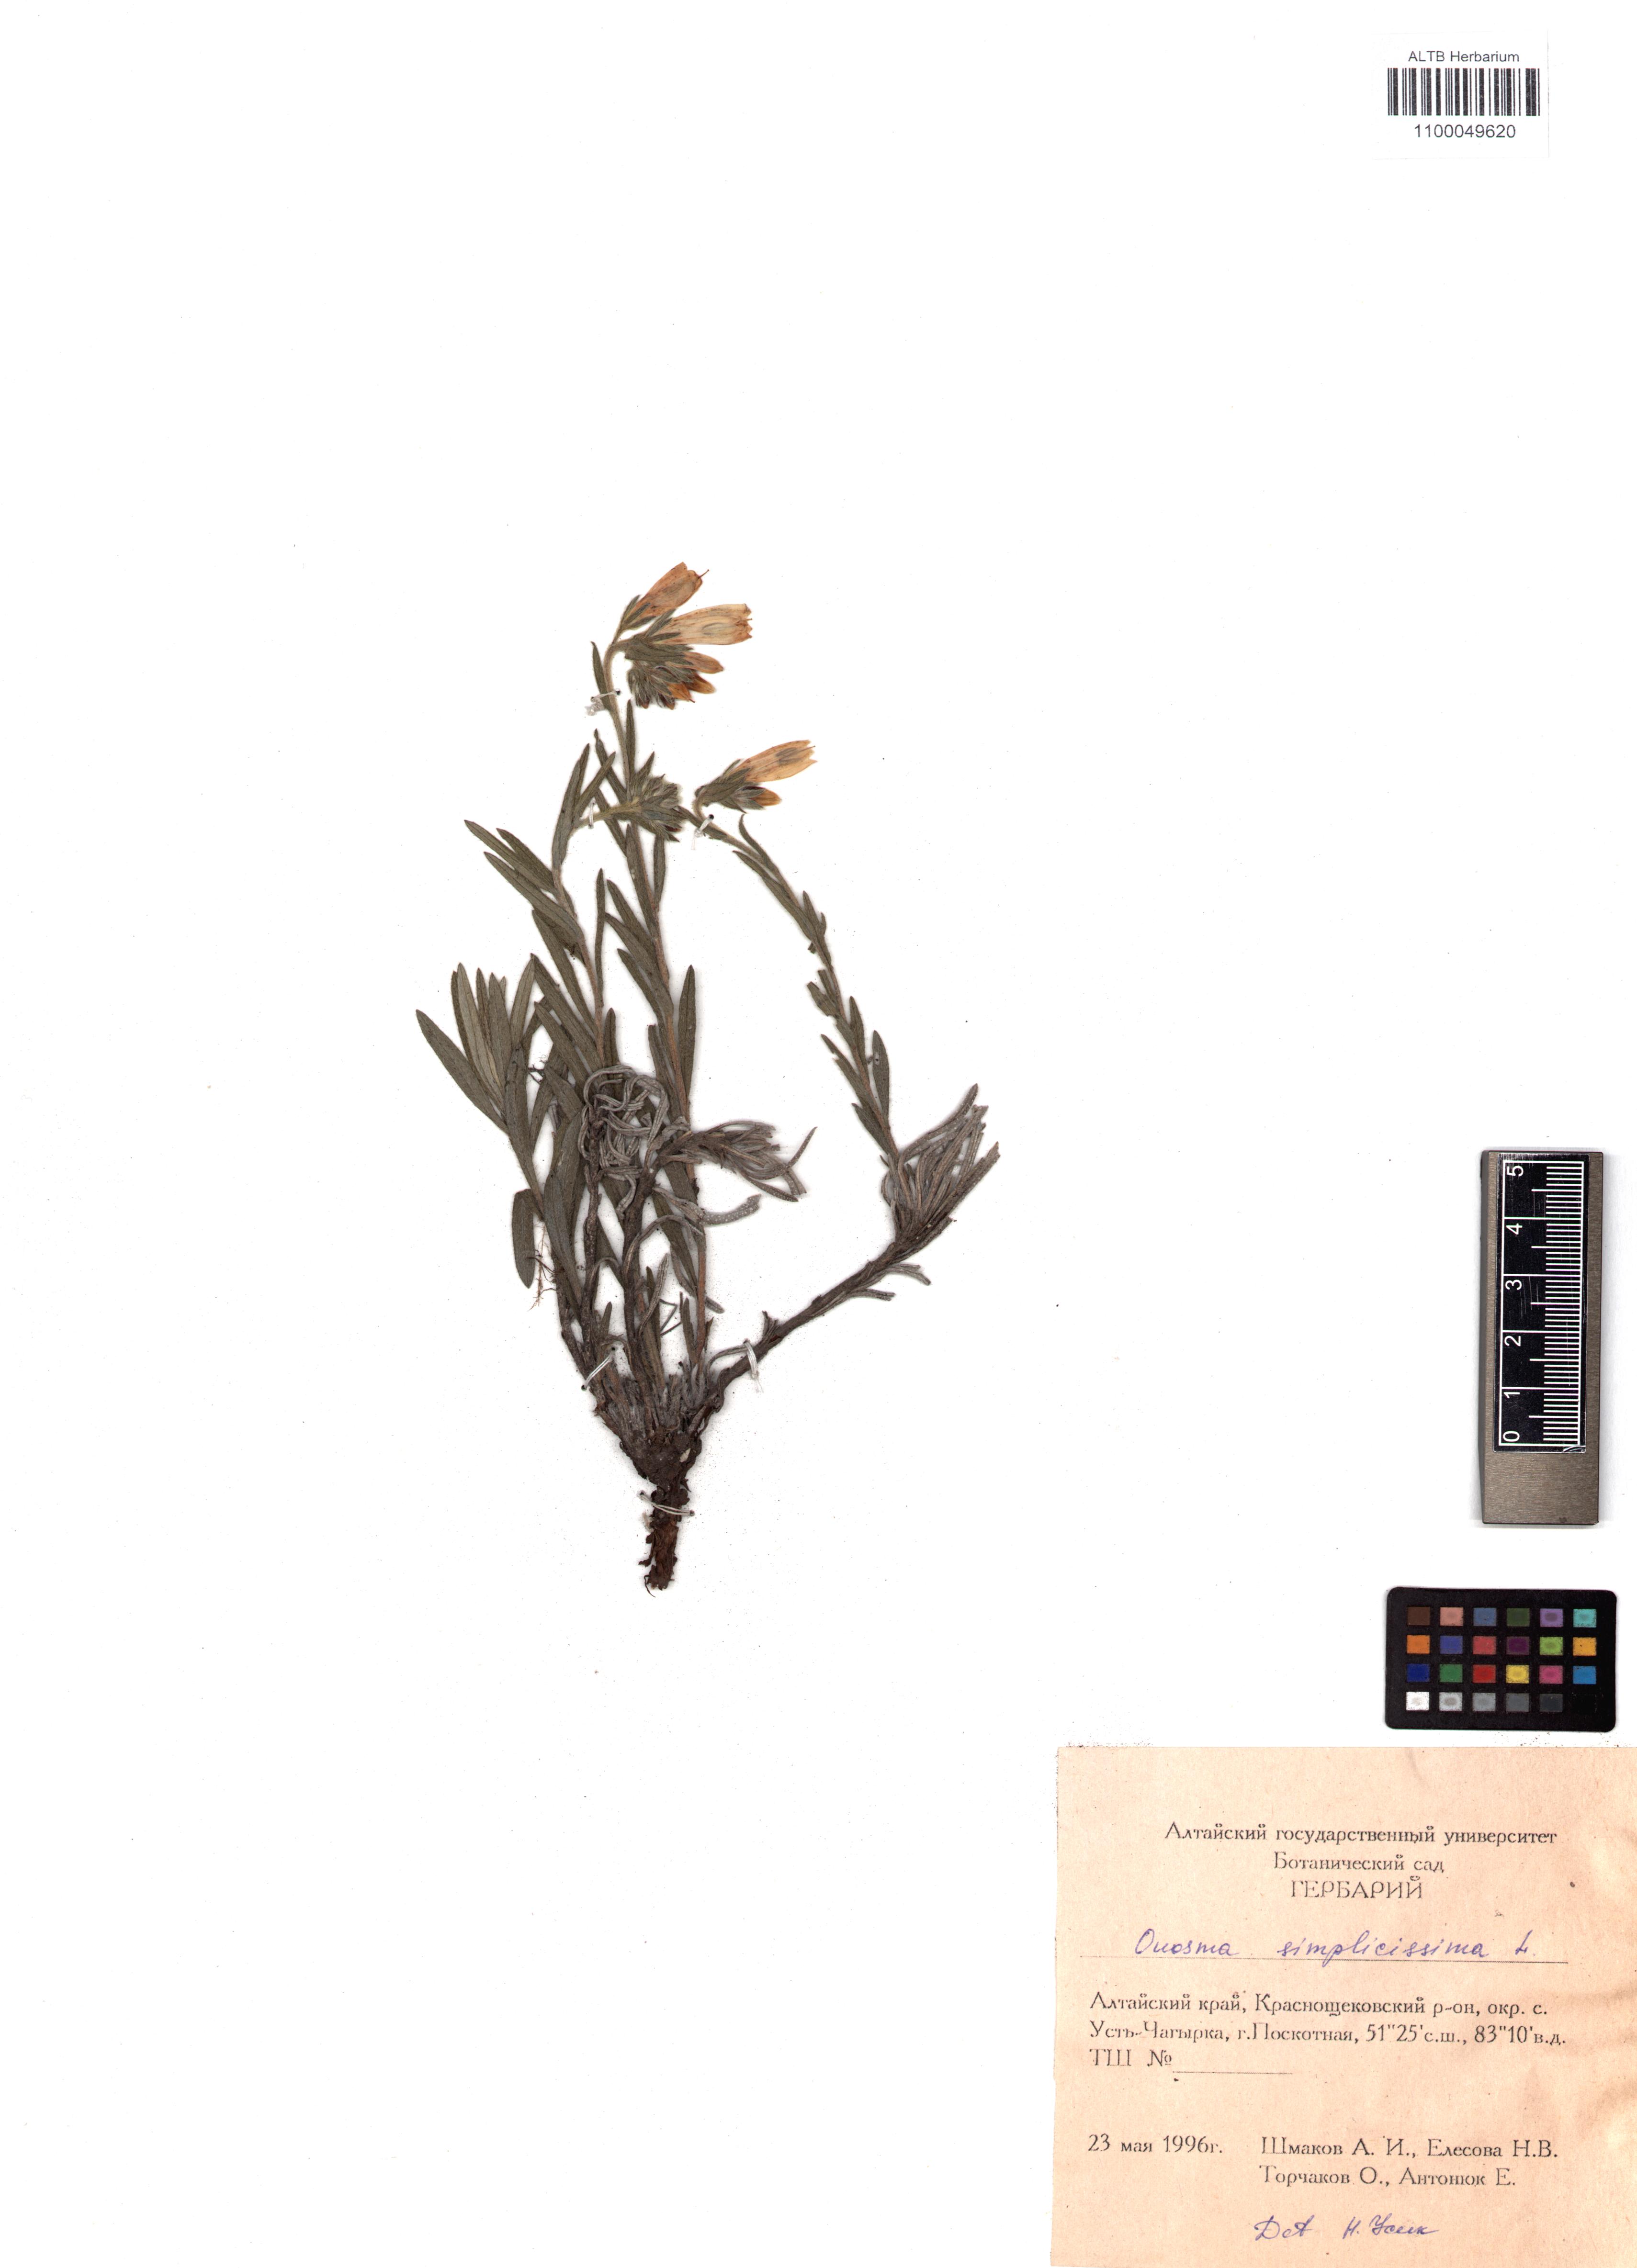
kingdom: Plantae
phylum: Tracheophyta
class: Magnoliopsida
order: Boraginales
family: Boraginaceae
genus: Onosma
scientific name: Onosma simplicissima
